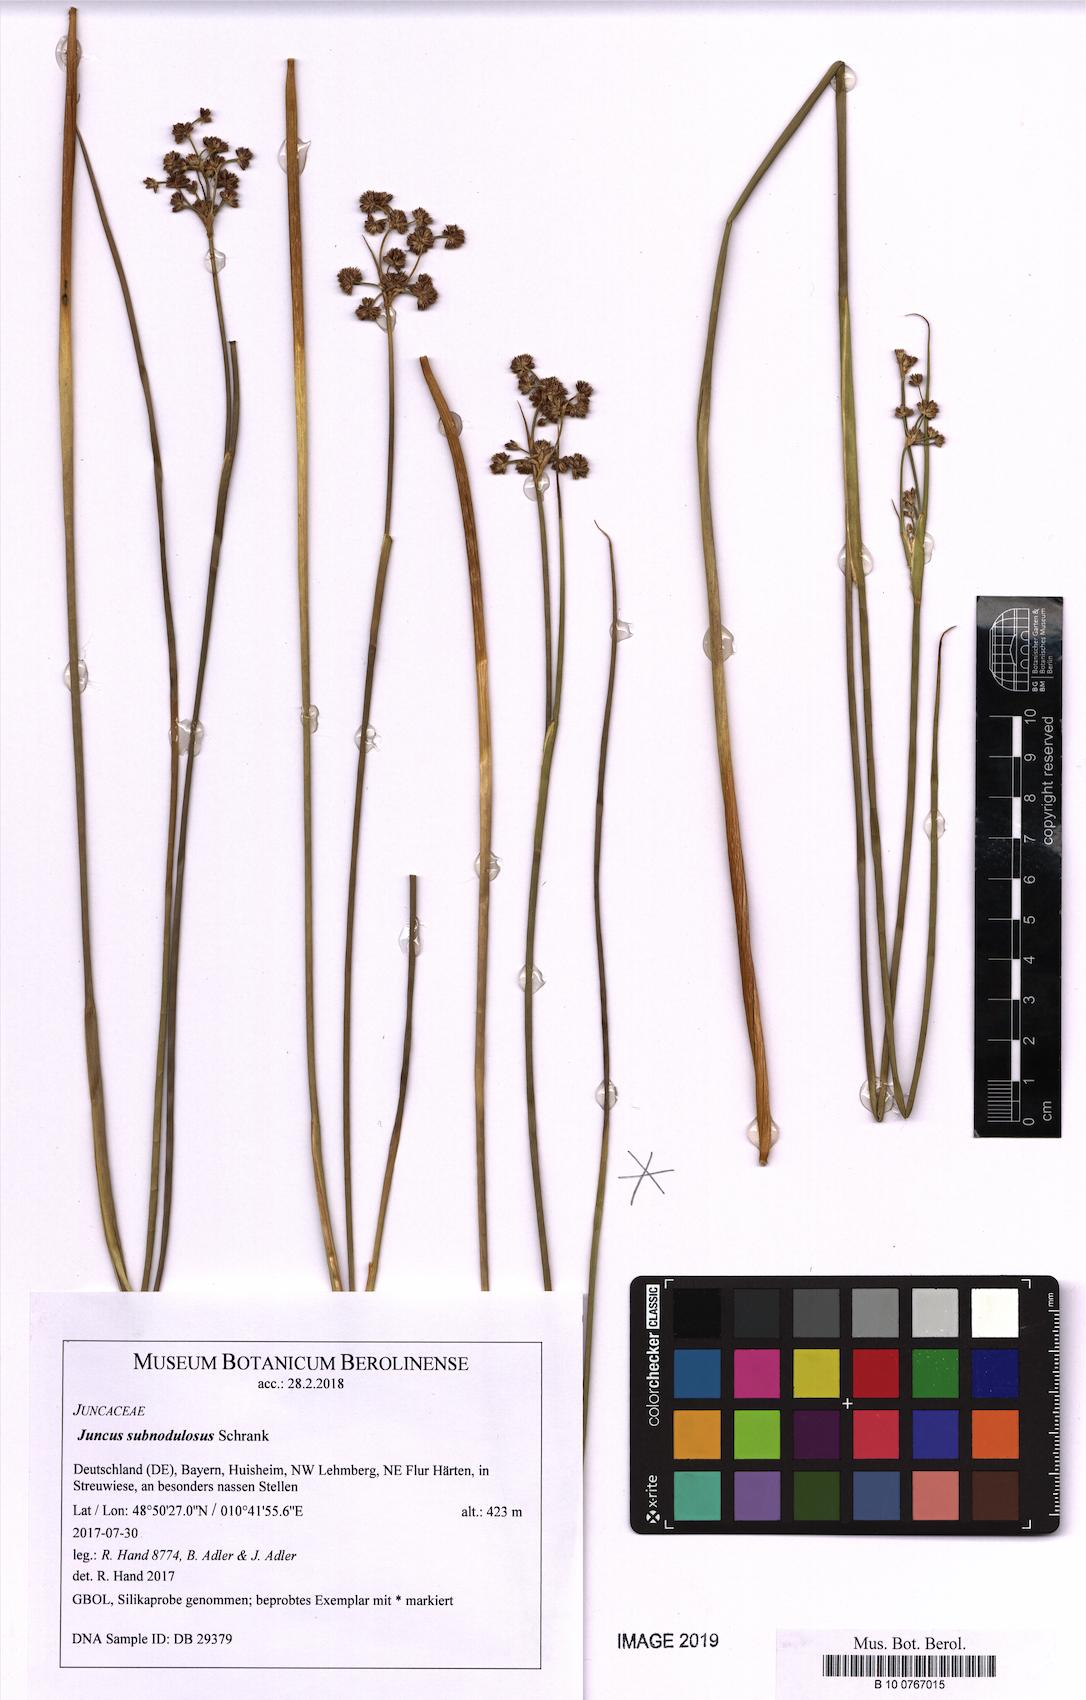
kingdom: Plantae
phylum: Tracheophyta
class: Liliopsida
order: Poales
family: Juncaceae
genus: Juncus
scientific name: Juncus subnodulosus
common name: Blunt-flowered rush
